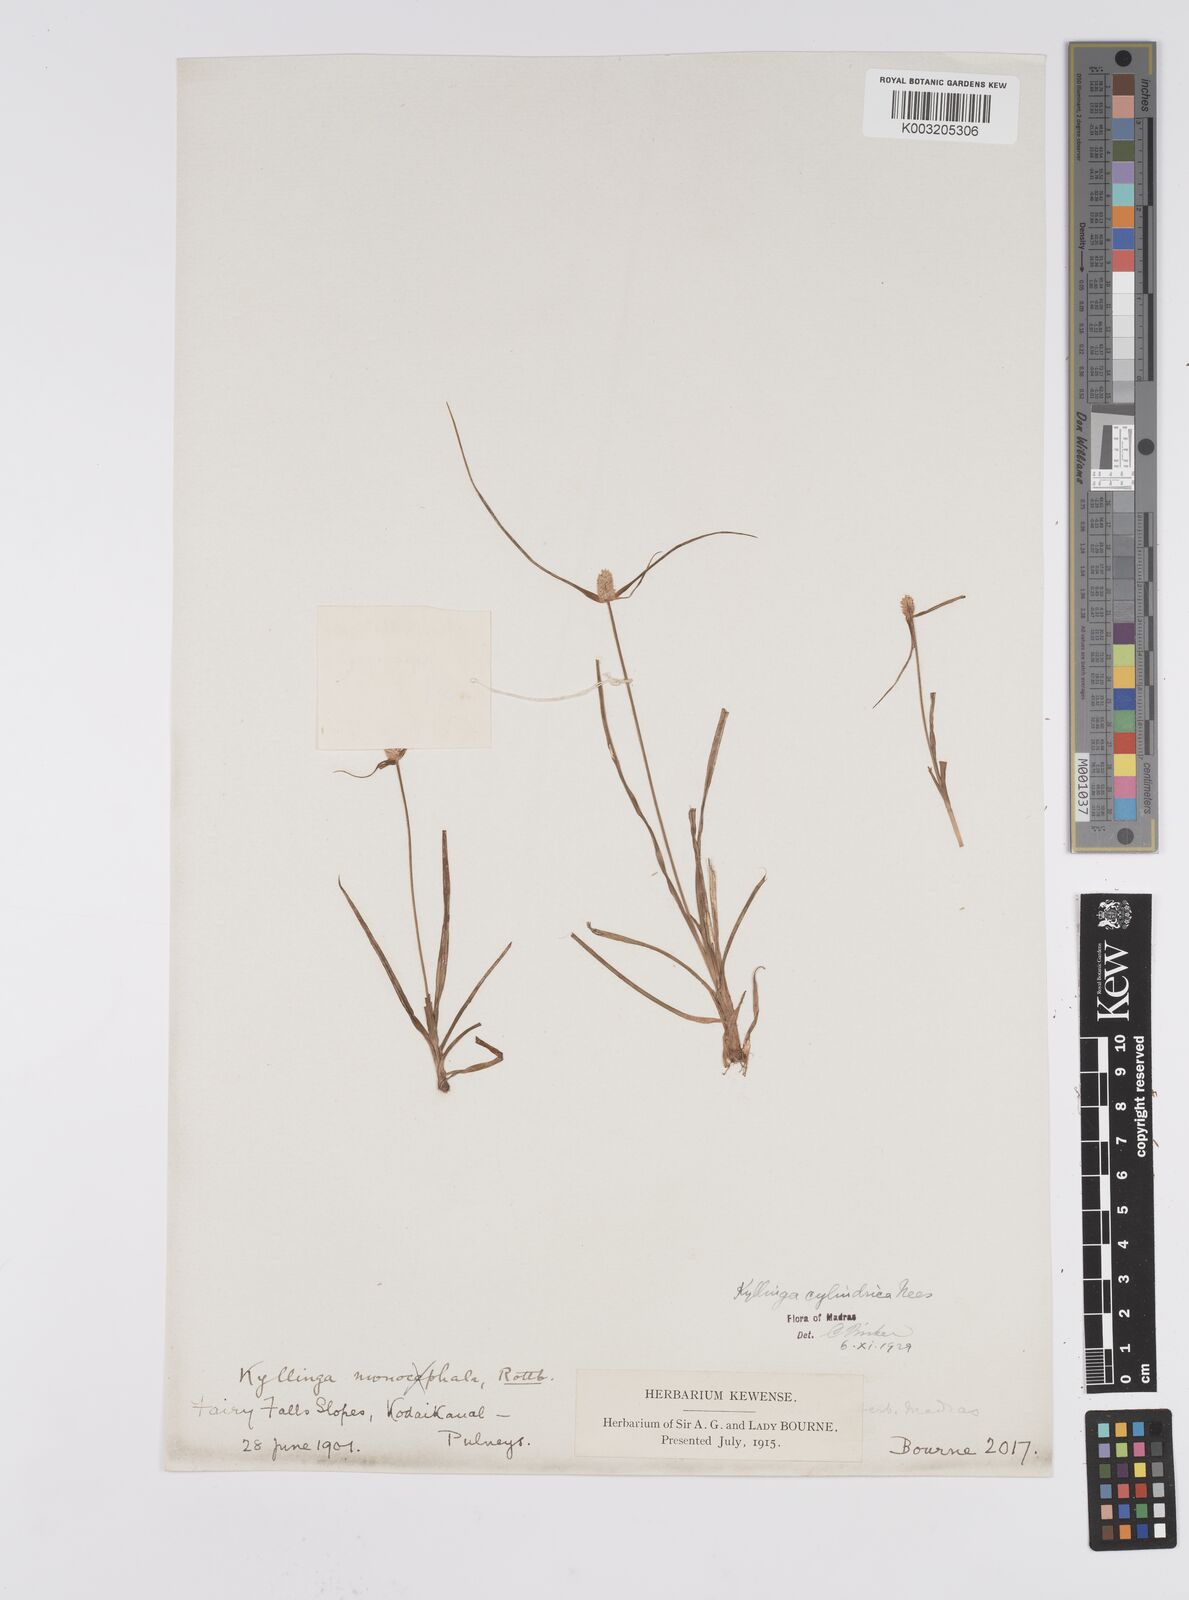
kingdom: Plantae
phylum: Tracheophyta
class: Liliopsida
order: Poales
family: Cyperaceae
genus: Cyperus
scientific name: Cyperus
